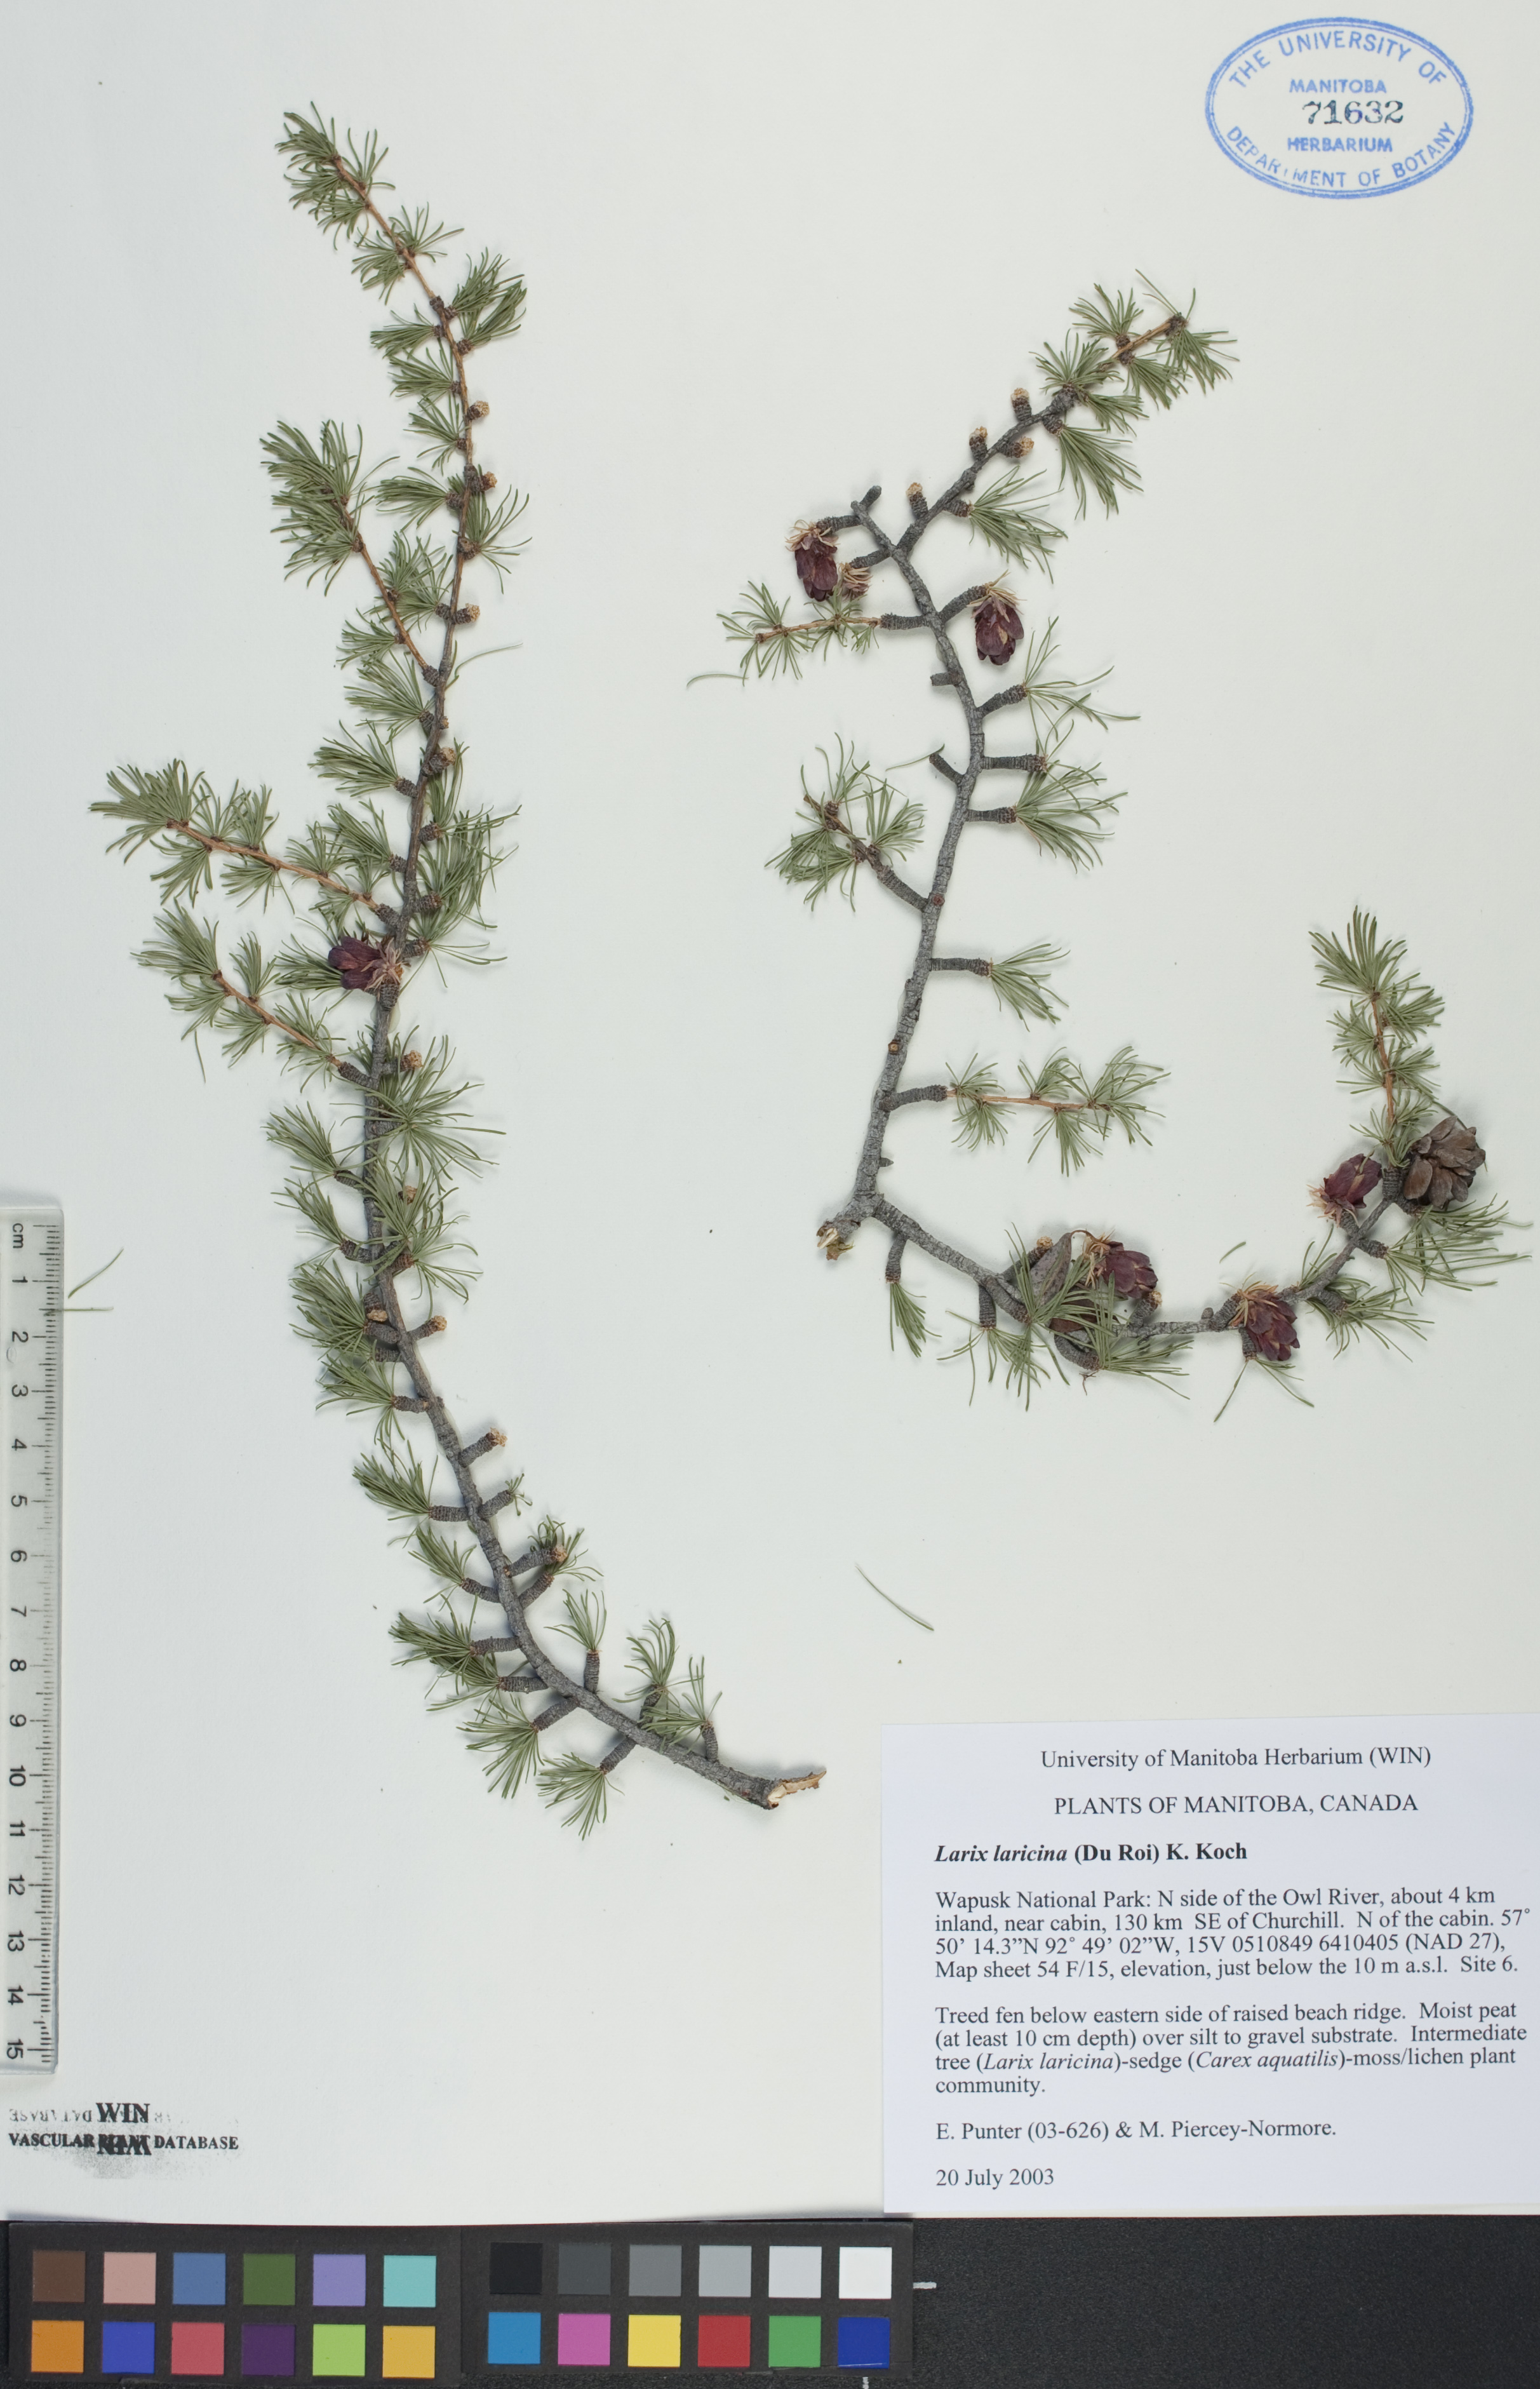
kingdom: Plantae
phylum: Tracheophyta
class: Pinopsida
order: Pinales
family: Pinaceae
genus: Larix
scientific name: Larix laricina
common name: American larch
